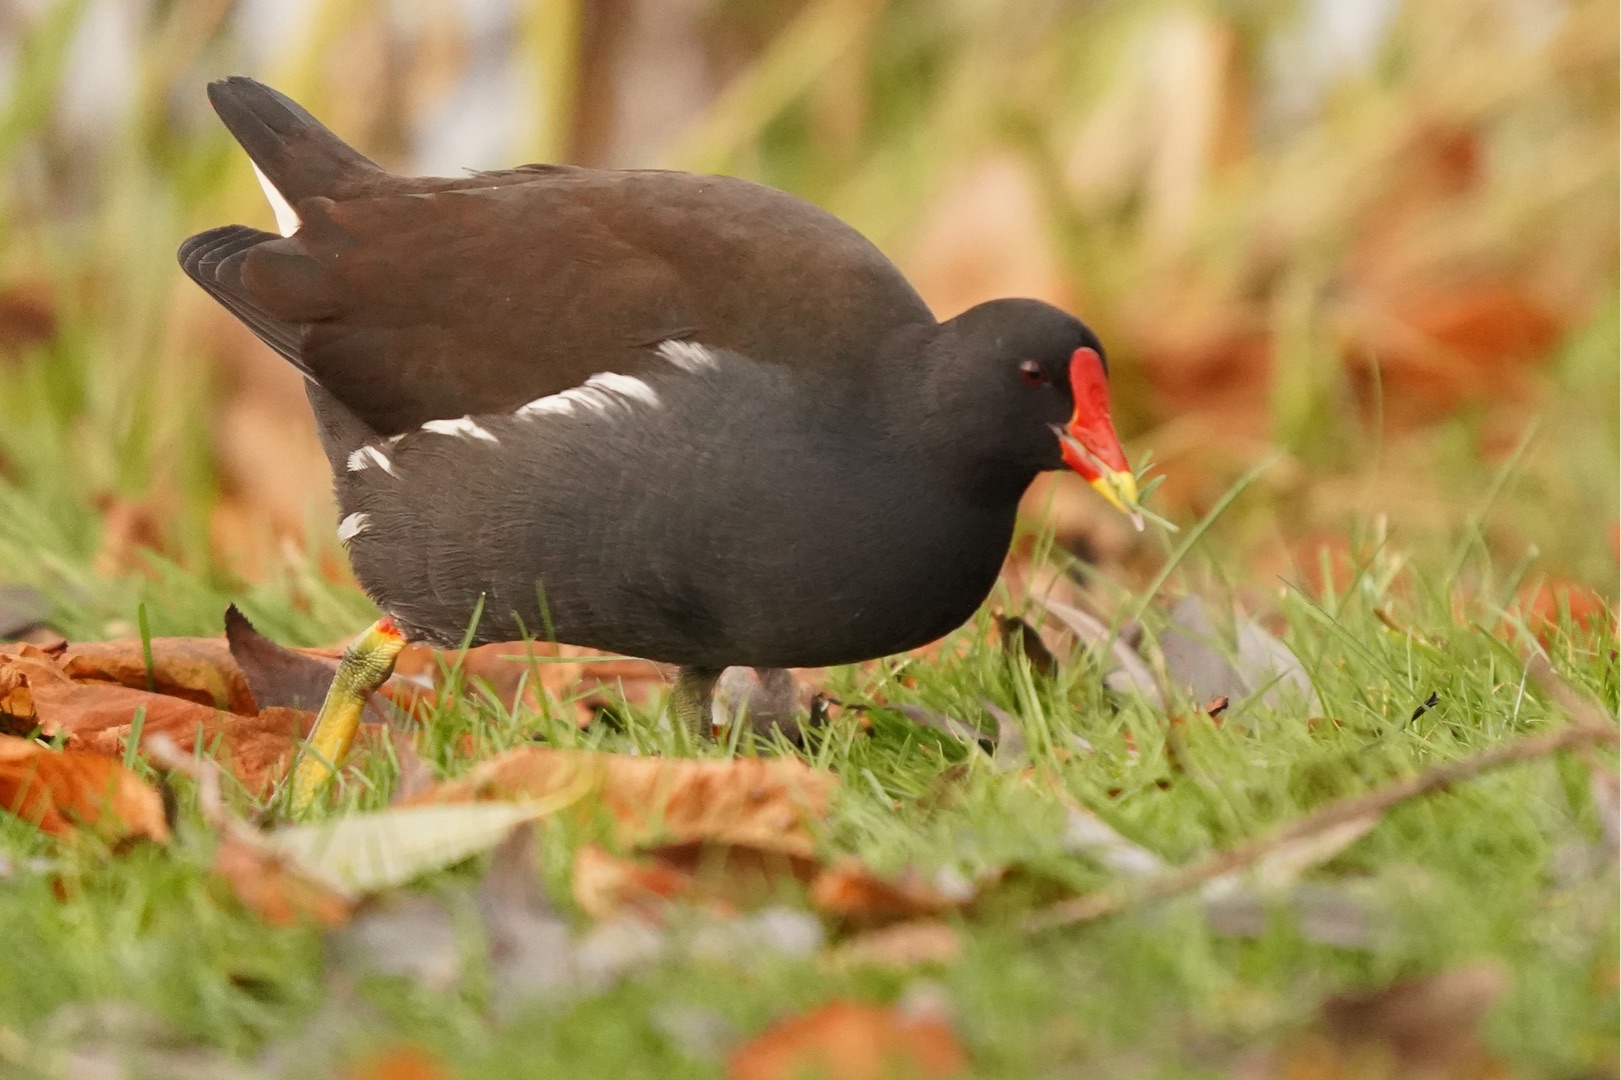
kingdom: Animalia
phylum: Chordata
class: Aves
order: Gruiformes
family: Rallidae
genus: Gallinula
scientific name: Gallinula chloropus
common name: Grønbenet rørhøne
